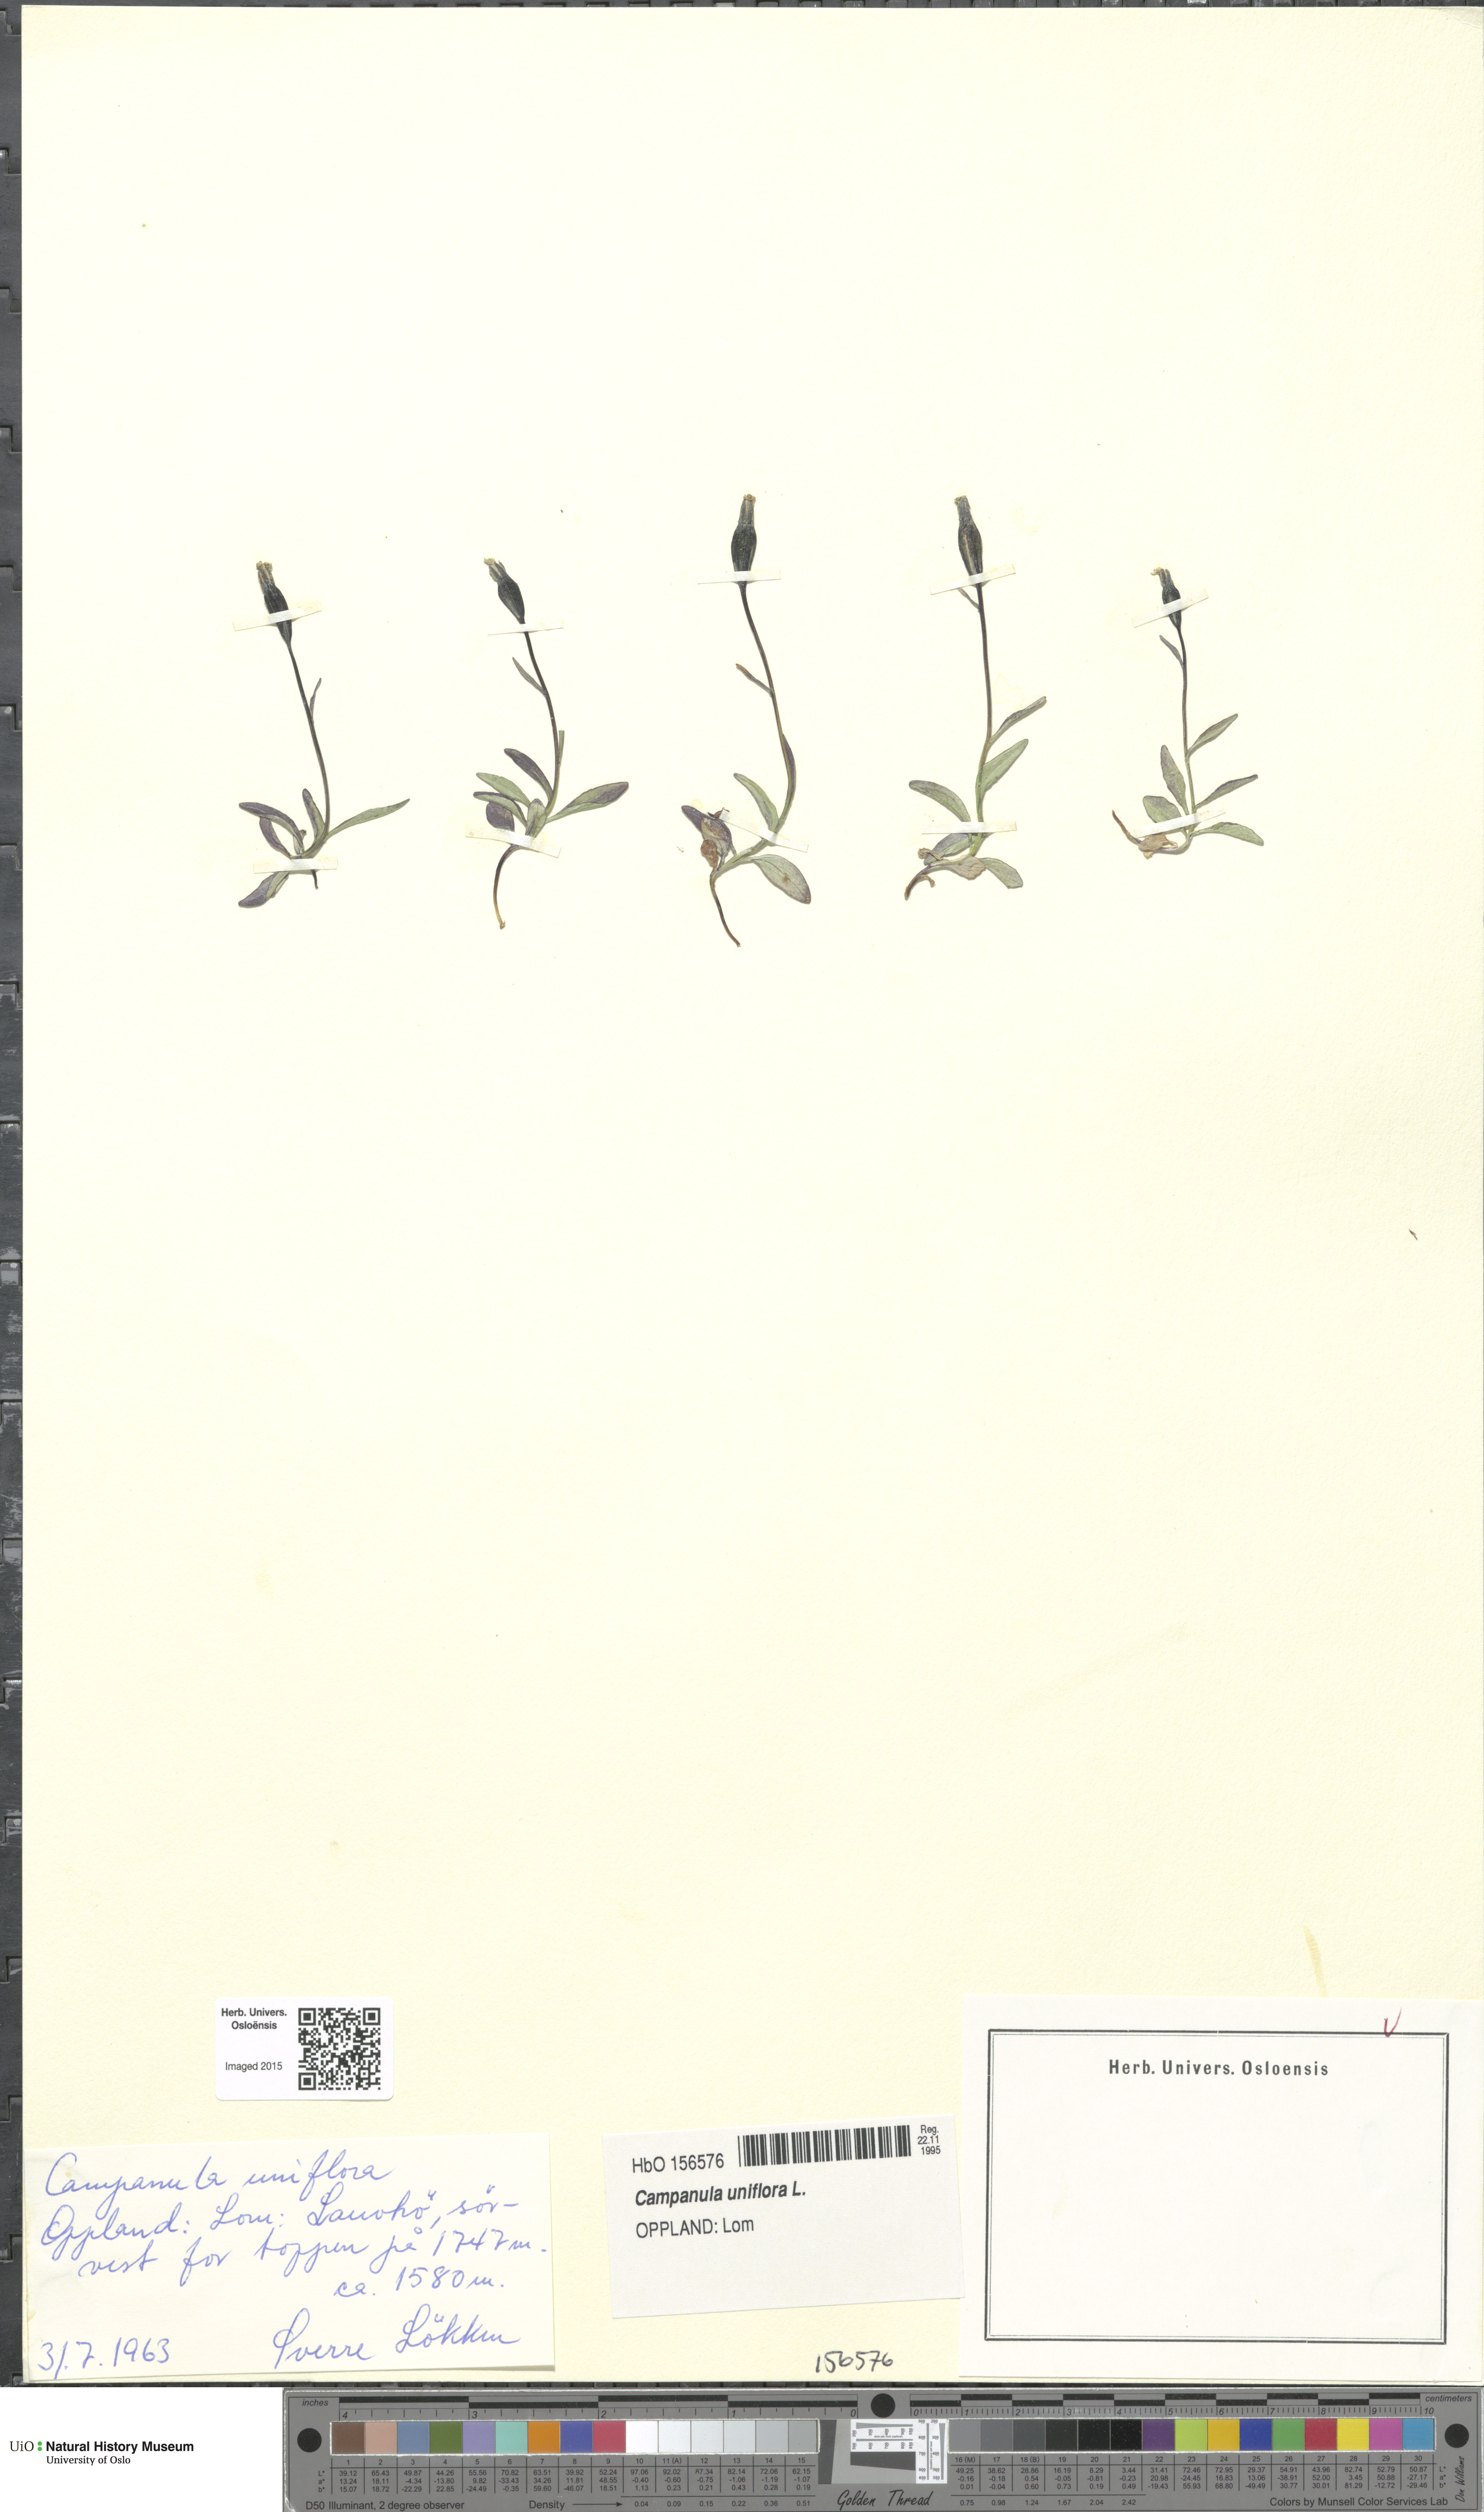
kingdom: Plantae
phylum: Tracheophyta
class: Magnoliopsida
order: Asterales
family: Campanulaceae
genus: Melanocalyx
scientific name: Melanocalyx uniflora
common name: Alpine harebell
